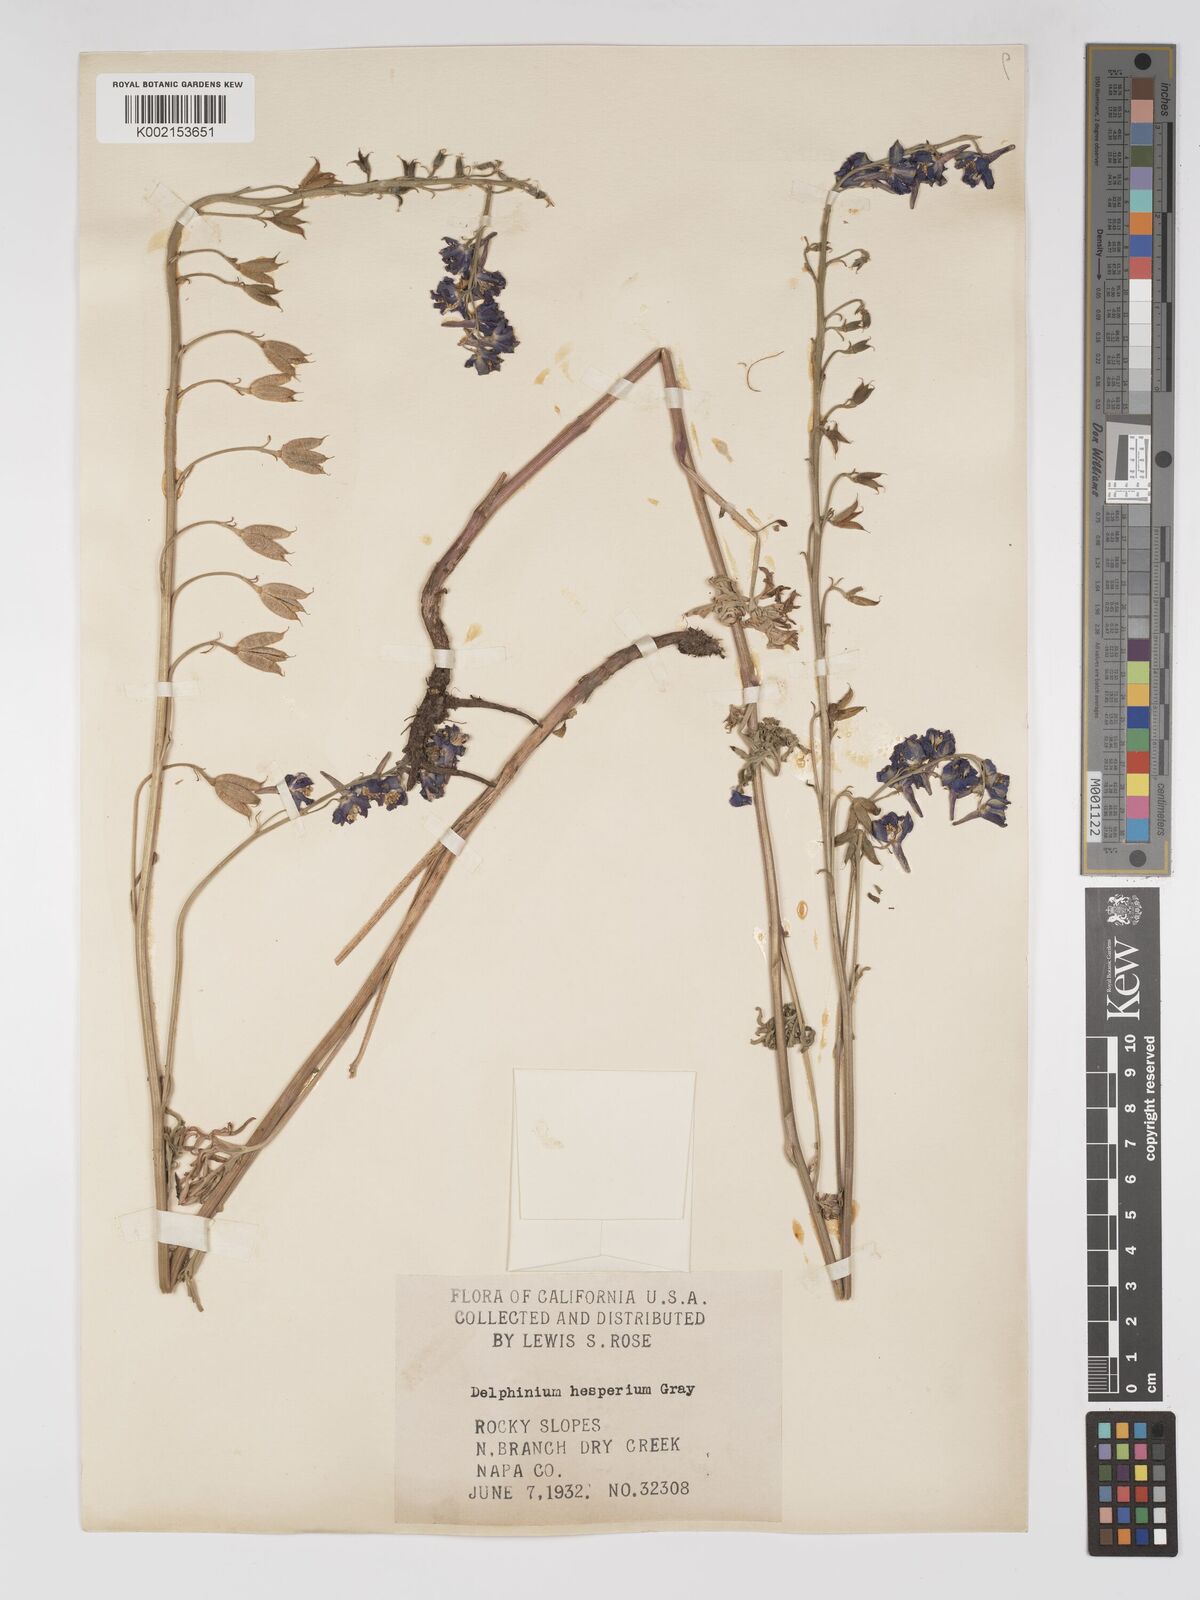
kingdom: Plantae
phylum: Tracheophyta
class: Magnoliopsida
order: Ranunculales
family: Ranunculaceae
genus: Delphinium
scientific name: Delphinium hesperium
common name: Western larkspur
